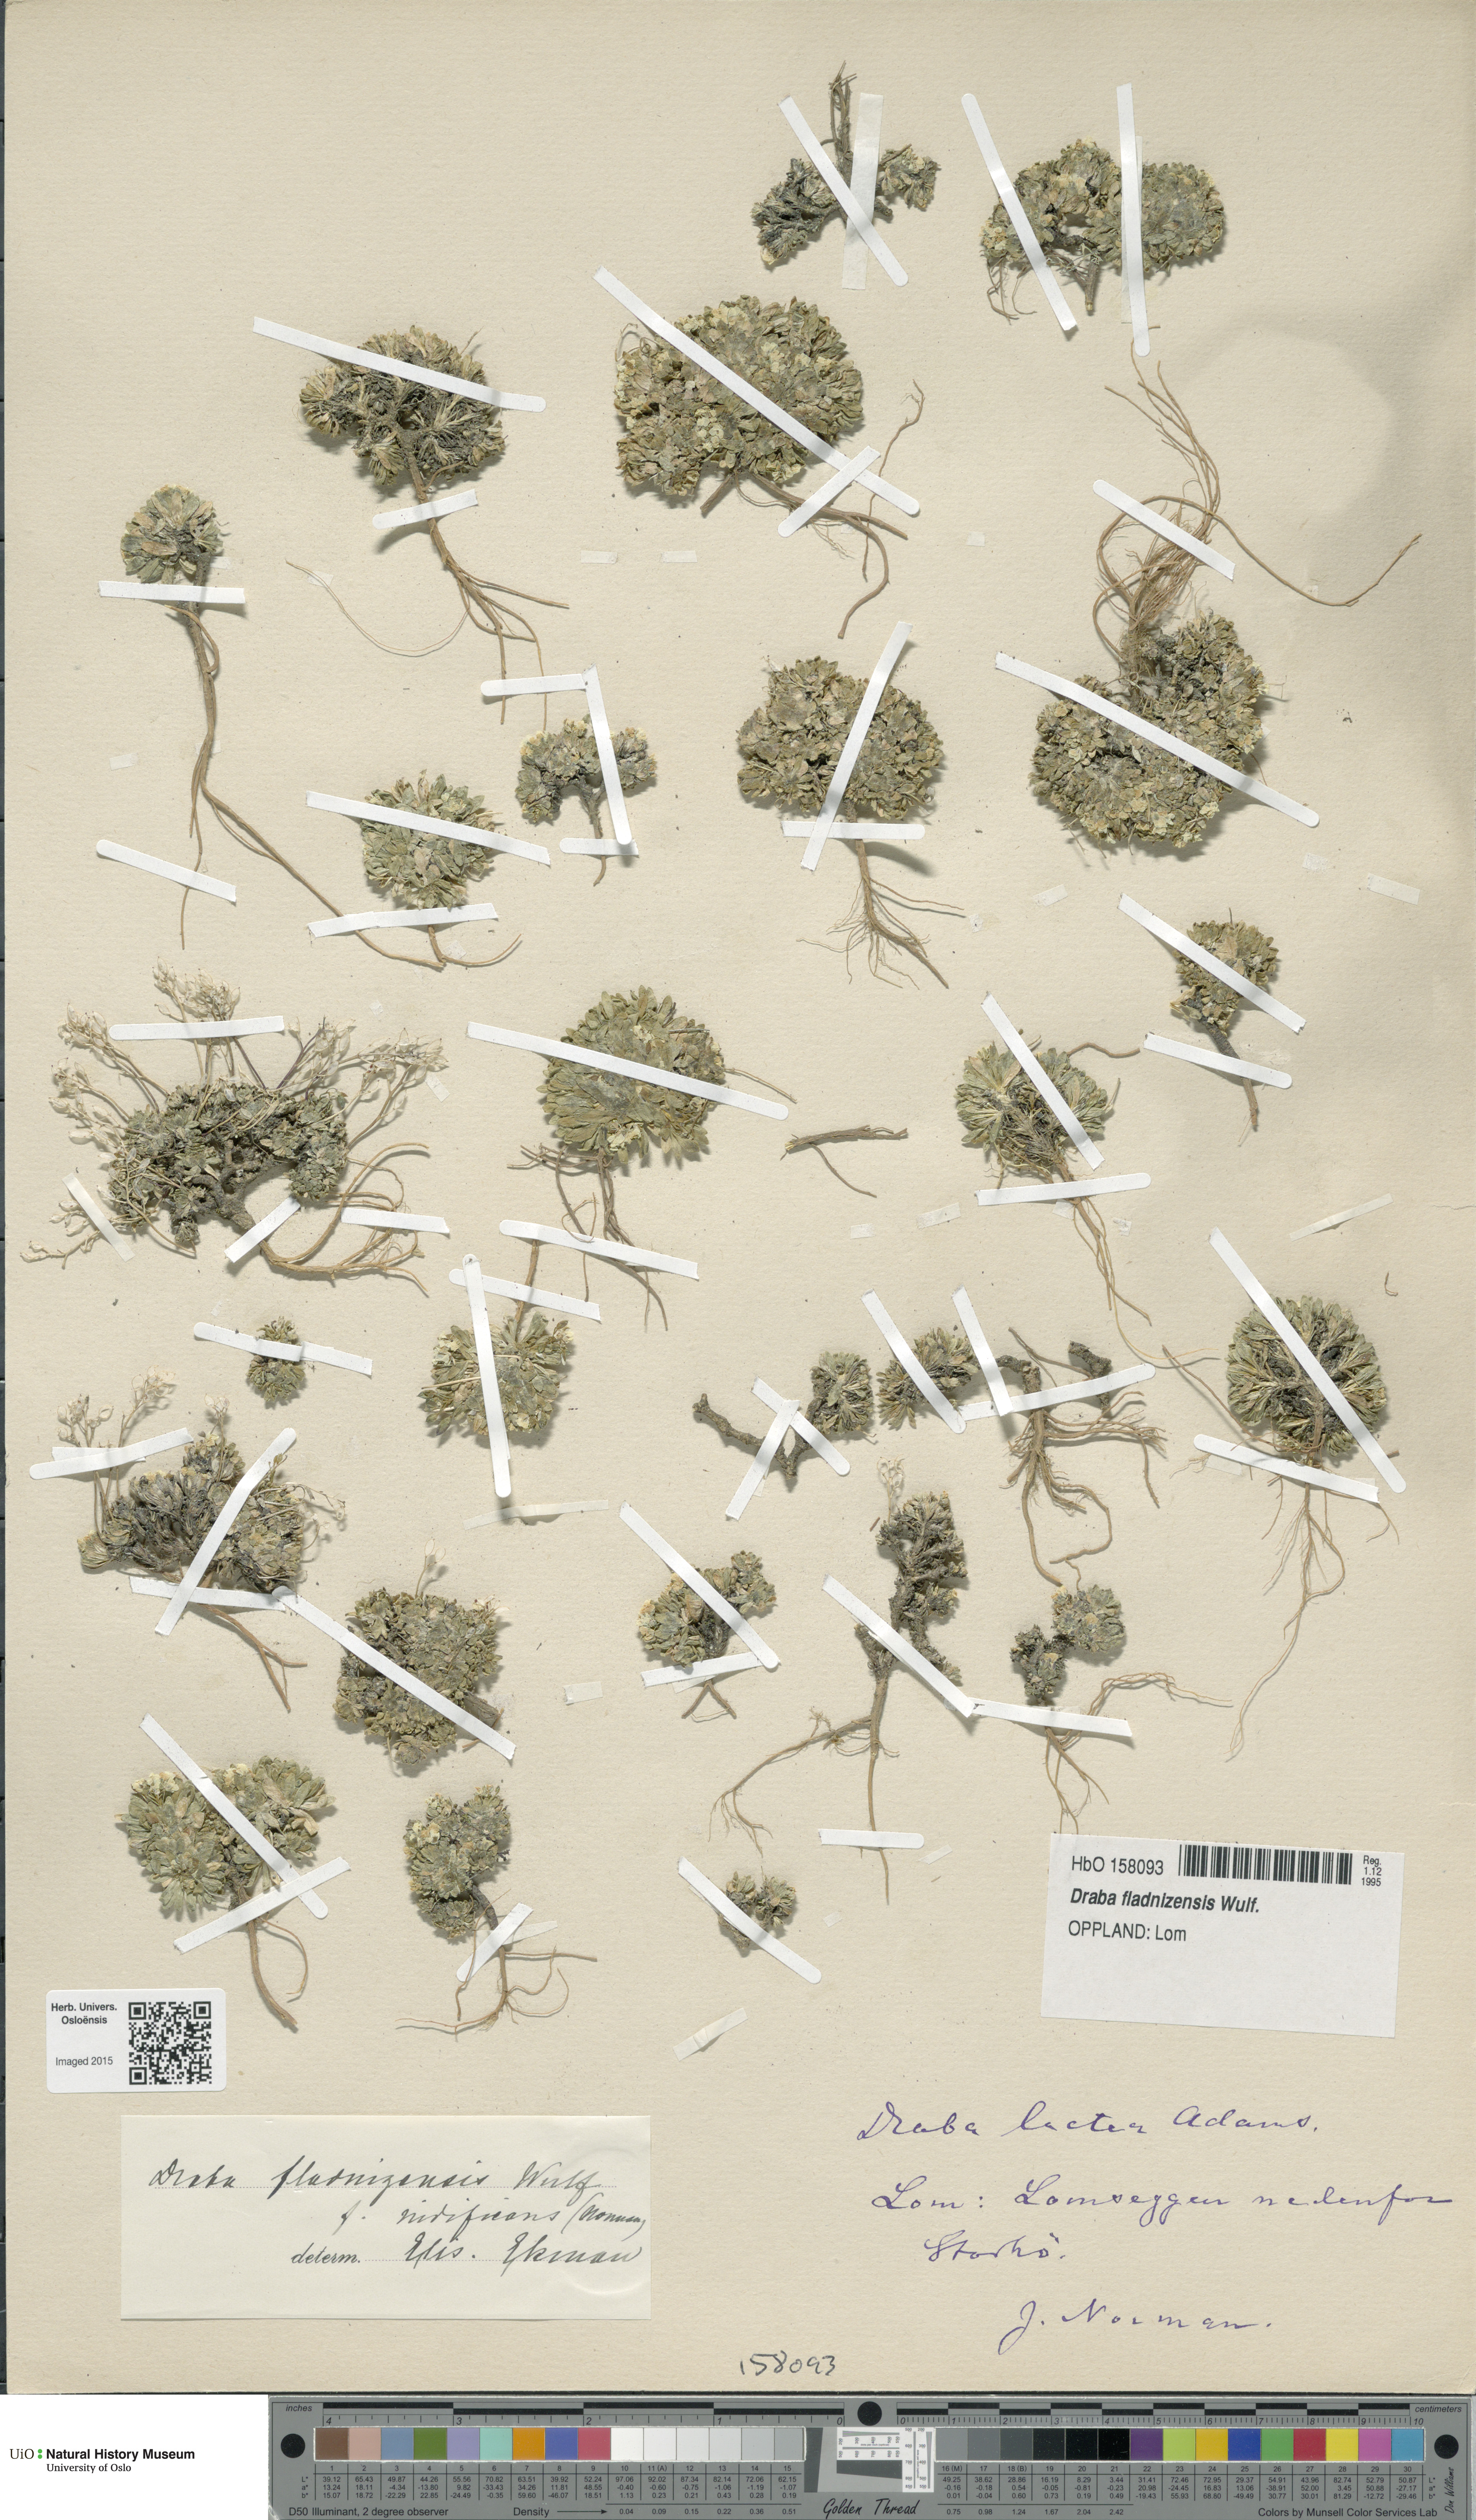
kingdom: Plantae
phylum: Tracheophyta
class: Magnoliopsida
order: Brassicales
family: Brassicaceae
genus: Draba
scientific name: Draba fladnizensis
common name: Austrian draba
